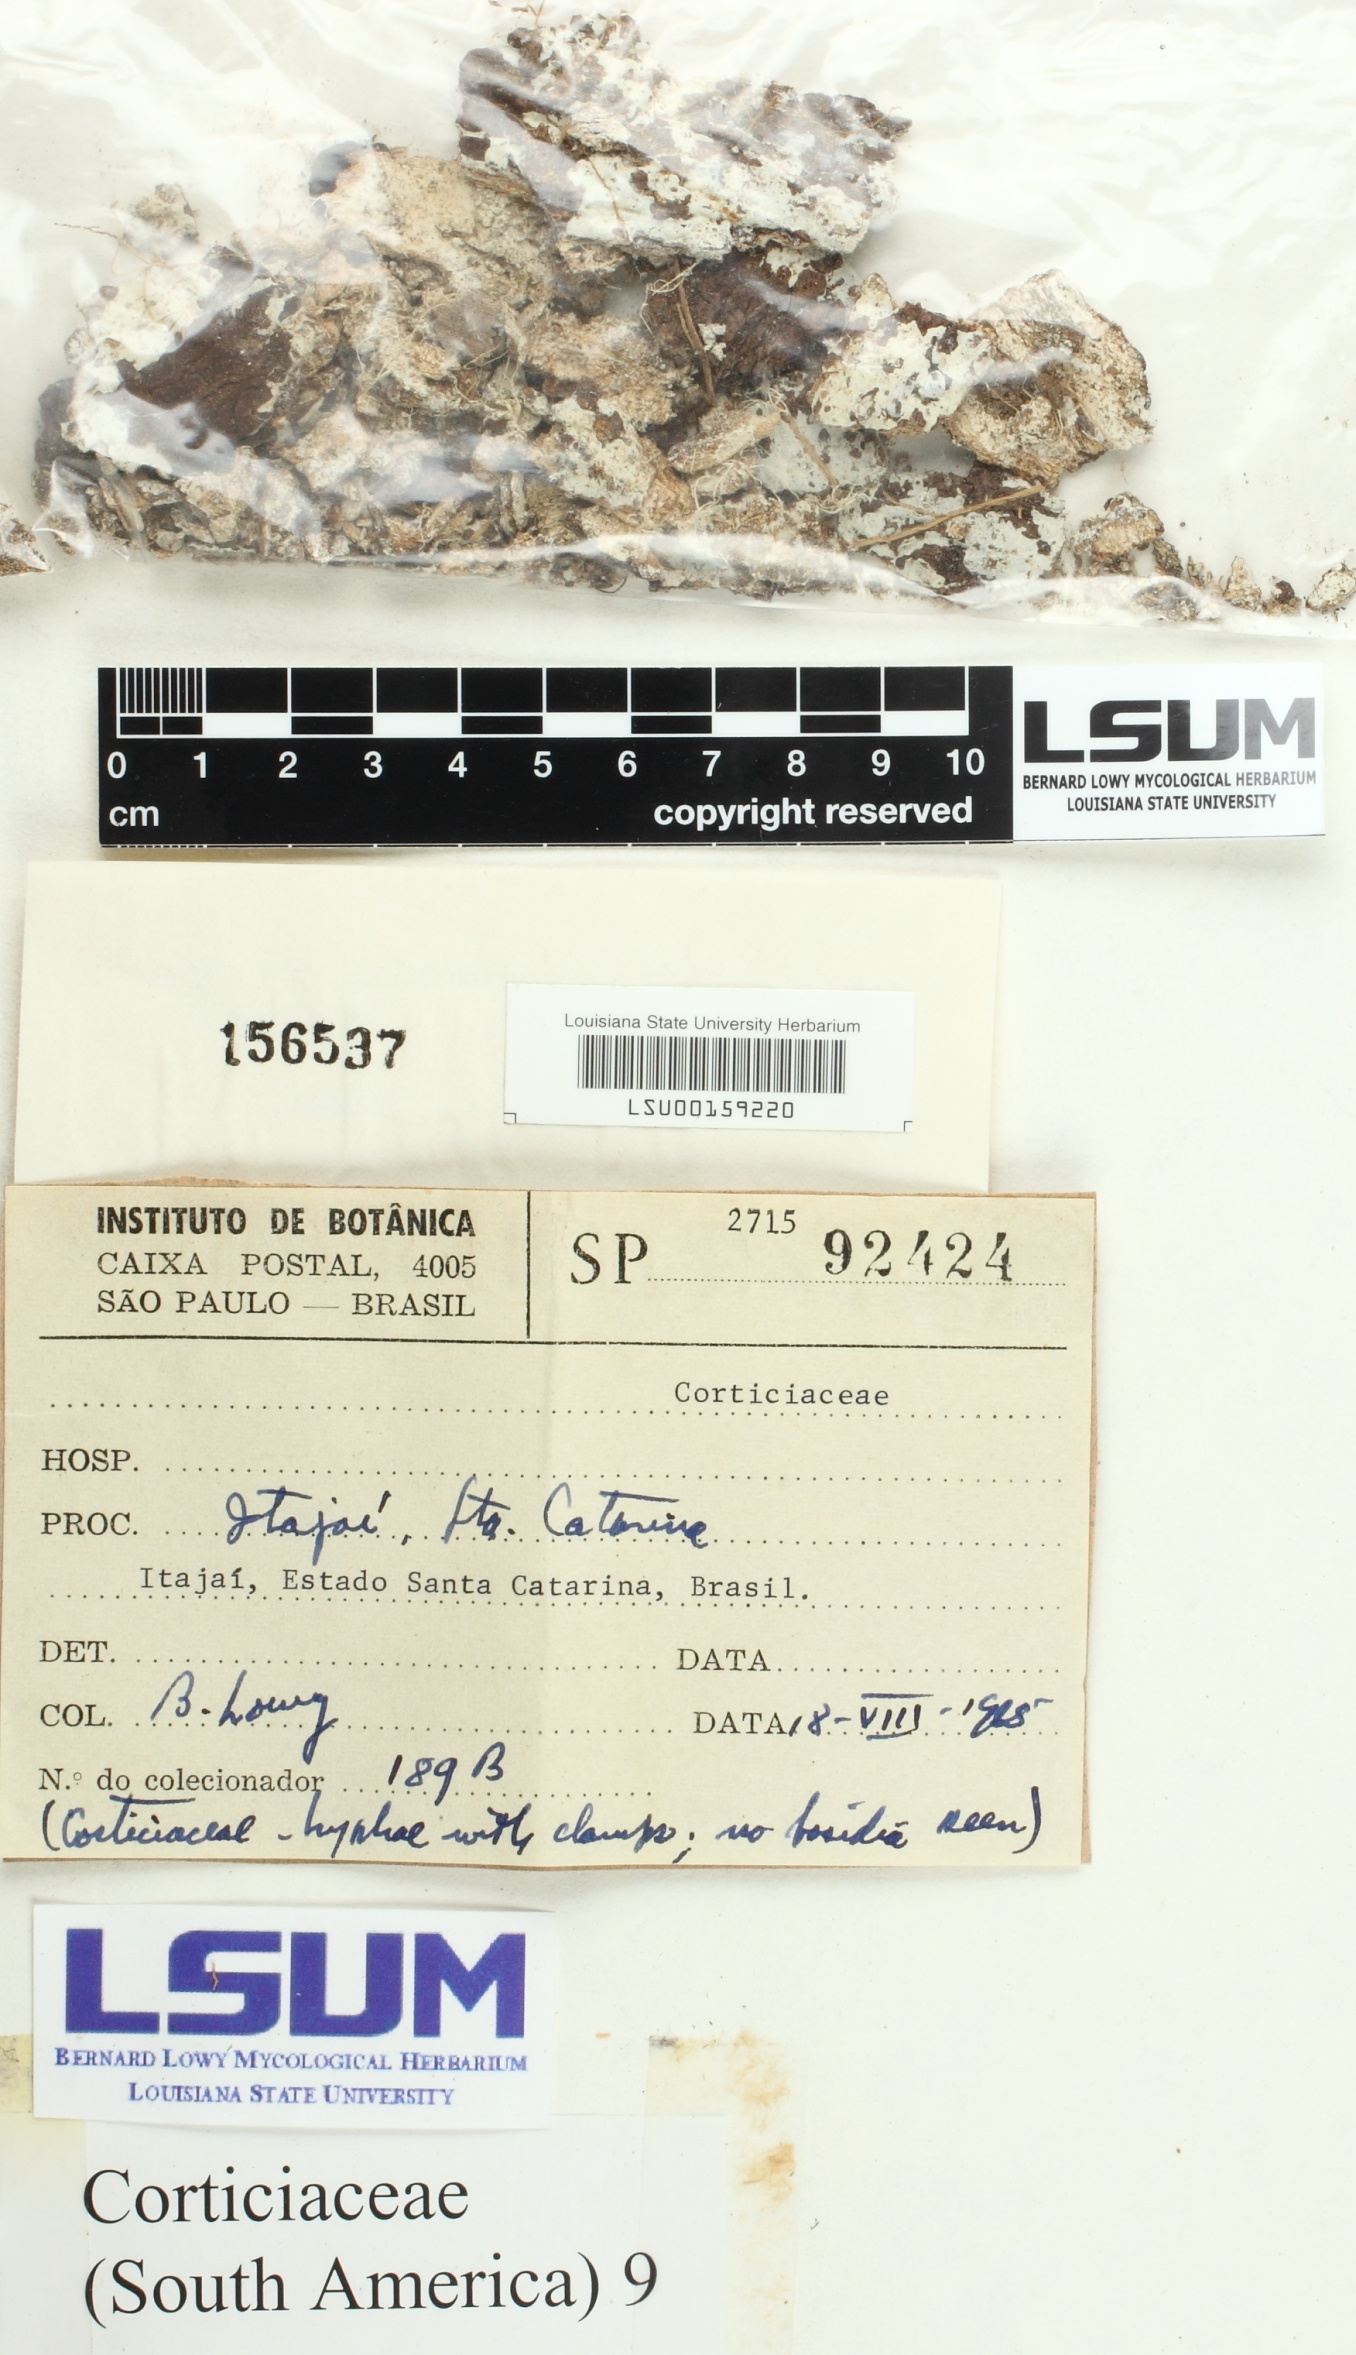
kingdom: Fungi
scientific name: Fungi
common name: Fungi
